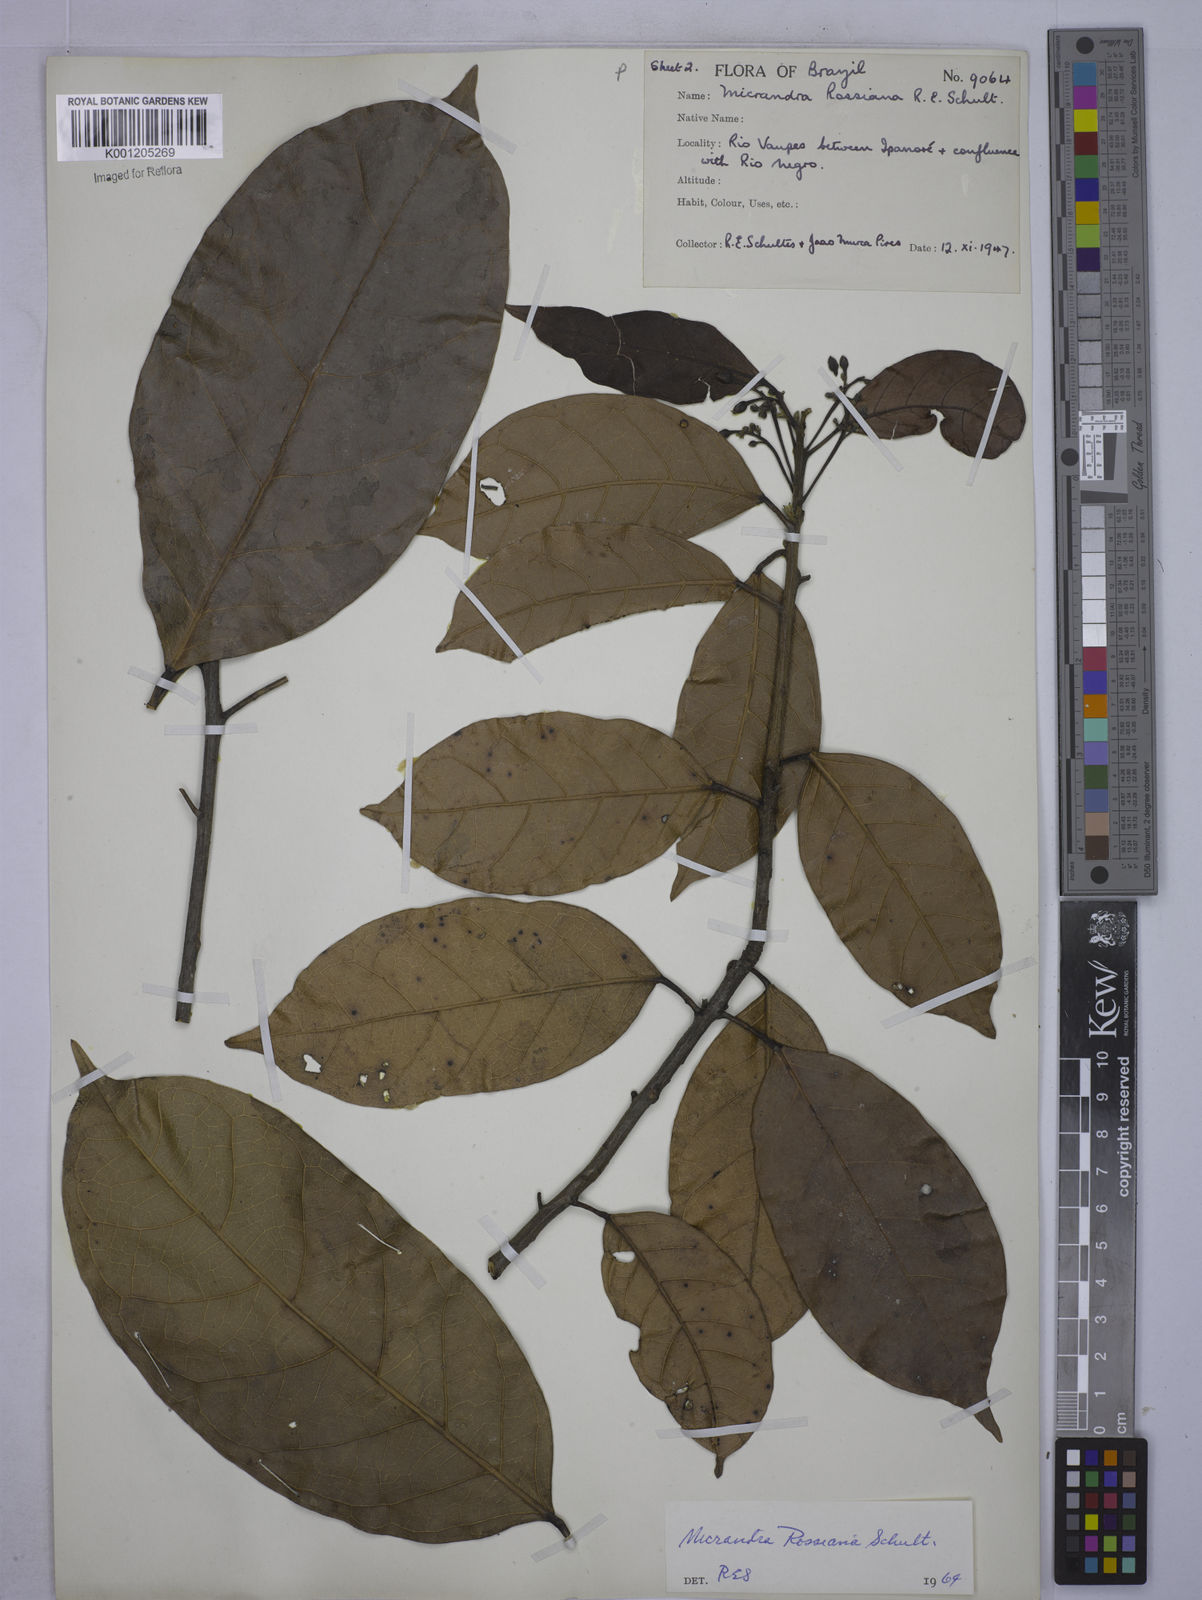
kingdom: Plantae
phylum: Tracheophyta
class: Magnoliopsida
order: Malpighiales
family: Euphorbiaceae
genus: Micrandra
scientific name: Micrandra rossiana
